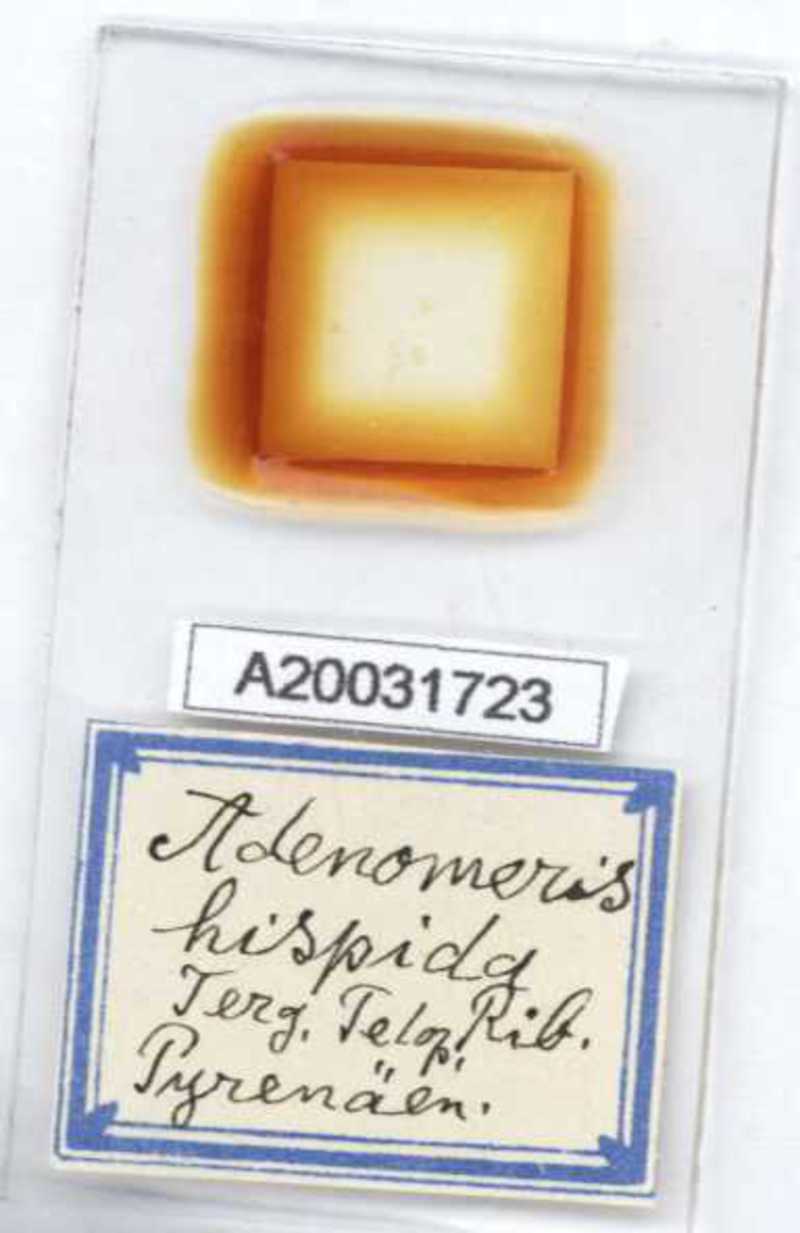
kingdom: Animalia
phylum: Arthropoda
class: Diplopoda
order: Glomerida
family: Glomeridae
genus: Adenomeris
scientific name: Adenomeris hispida
